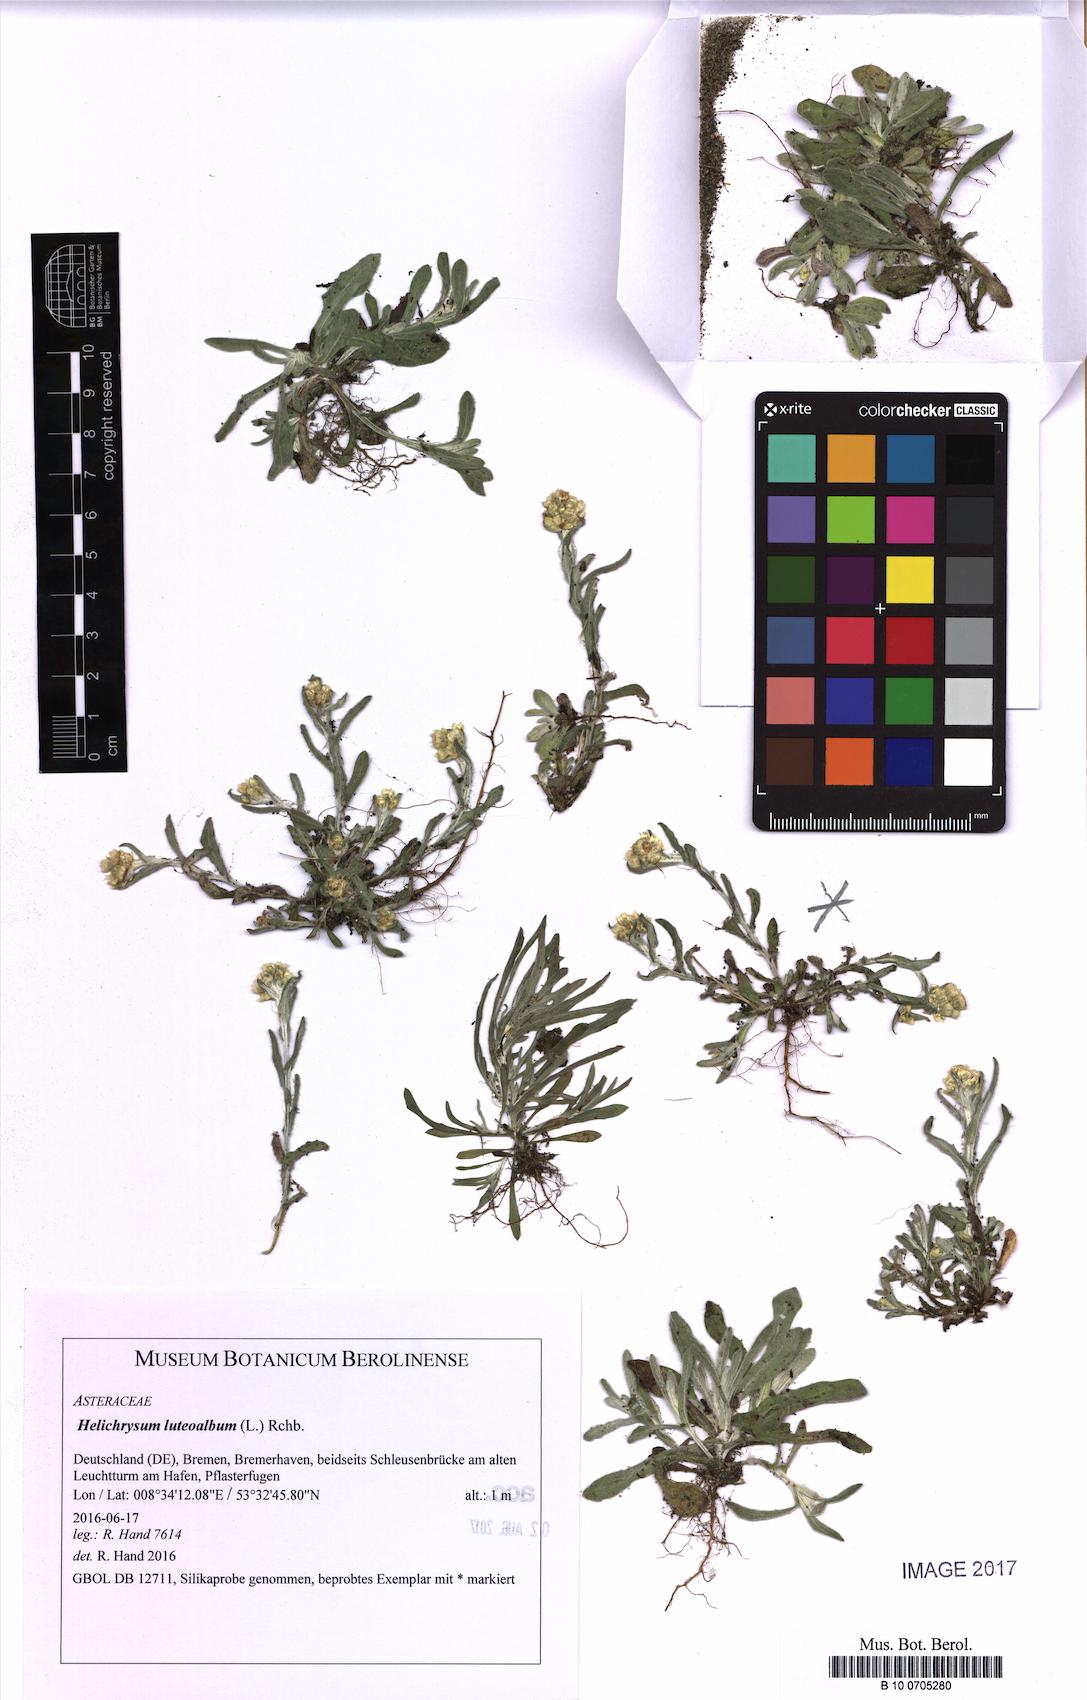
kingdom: Plantae
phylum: Tracheophyta
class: Magnoliopsida
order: Asterales
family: Asteraceae
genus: Helichrysum
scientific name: Helichrysum luteoalbum
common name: Daisy
